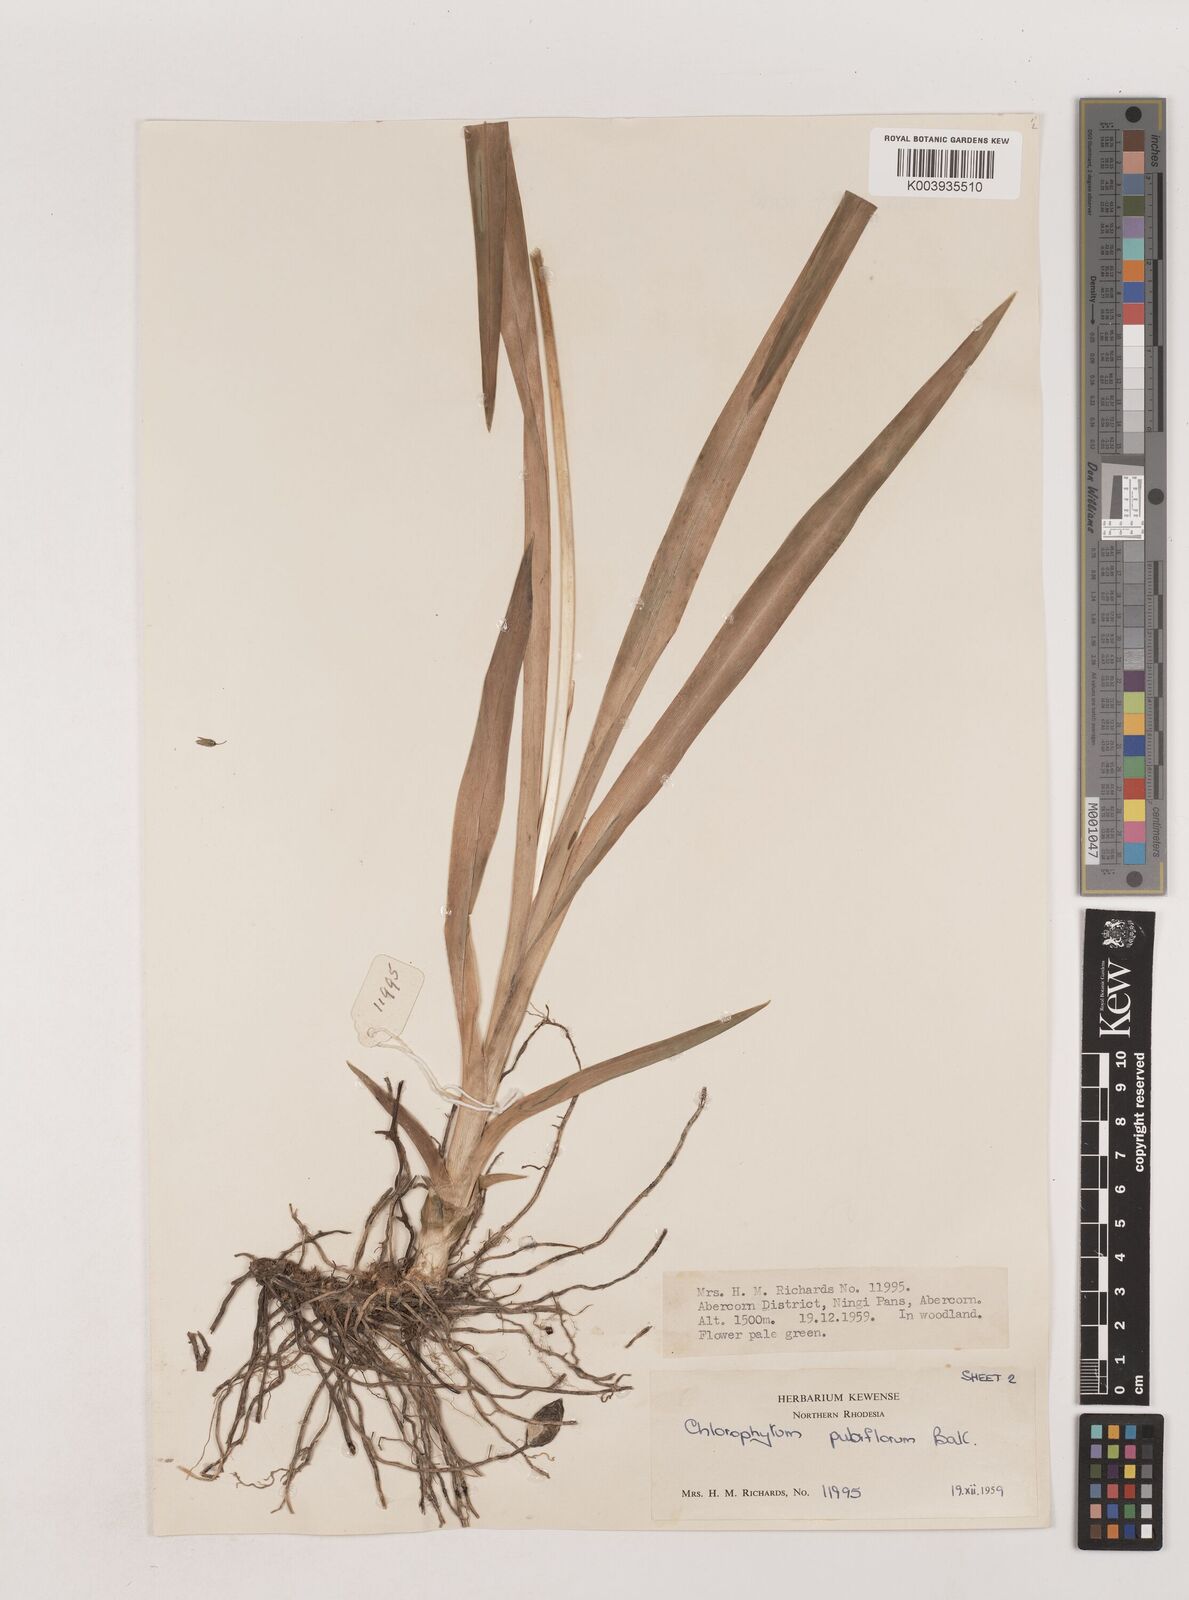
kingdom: Plantae
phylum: Tracheophyta
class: Liliopsida
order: Asparagales
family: Asparagaceae
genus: Chlorophytum
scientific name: Chlorophytum pubiflorum
